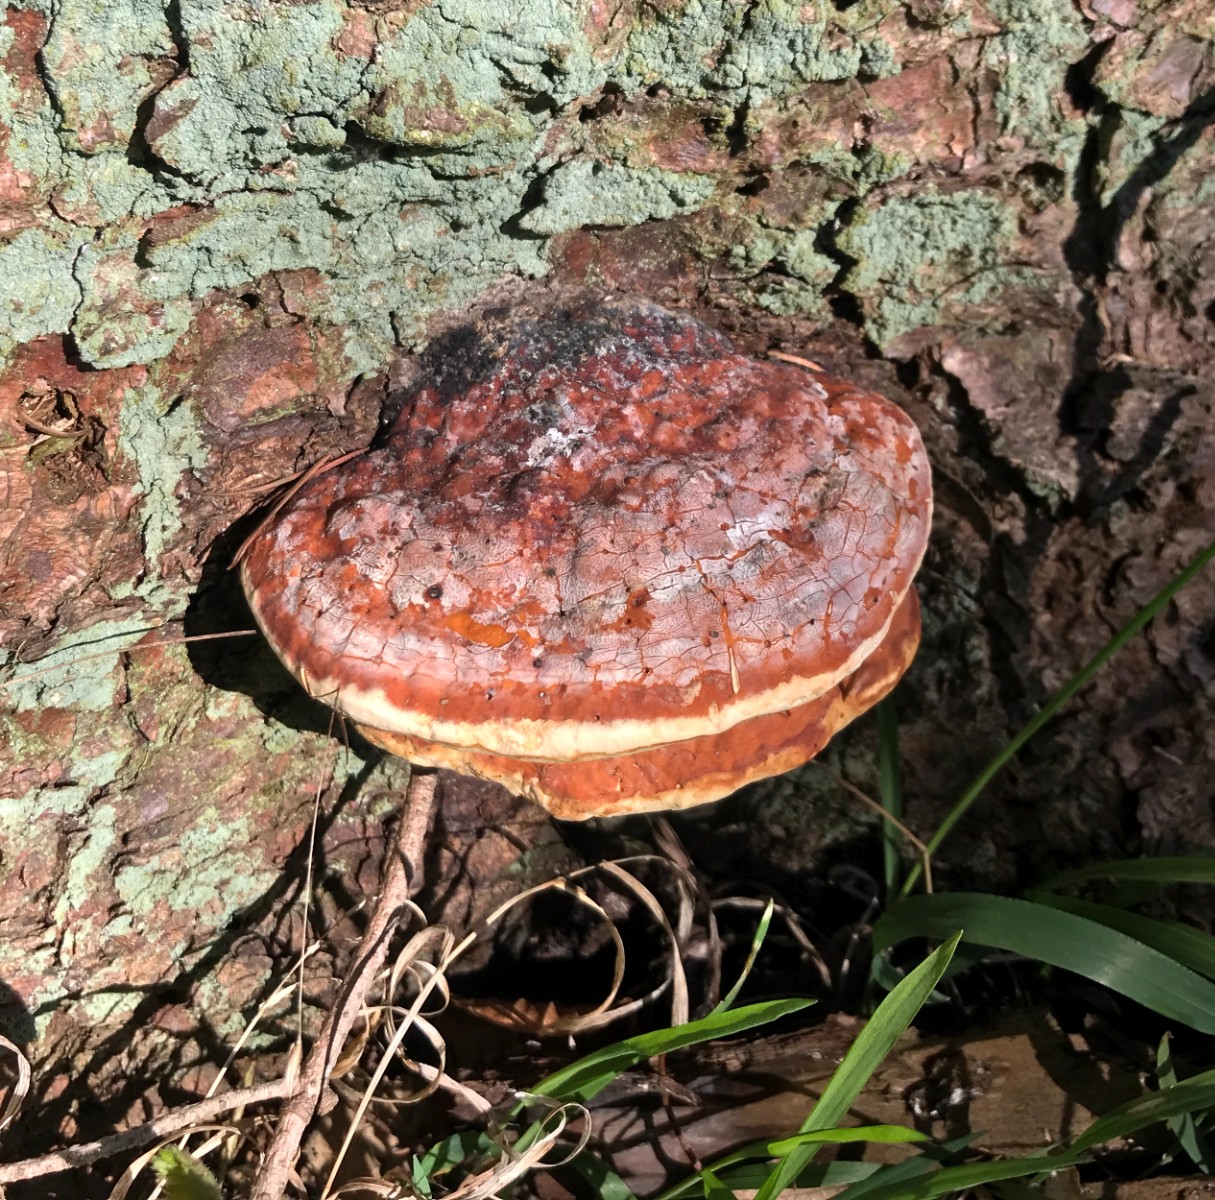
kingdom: Fungi
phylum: Basidiomycota
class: Agaricomycetes
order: Polyporales
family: Fomitopsidaceae
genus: Fomitopsis
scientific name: Fomitopsis pinicola
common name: randbæltet hovporesvamp
